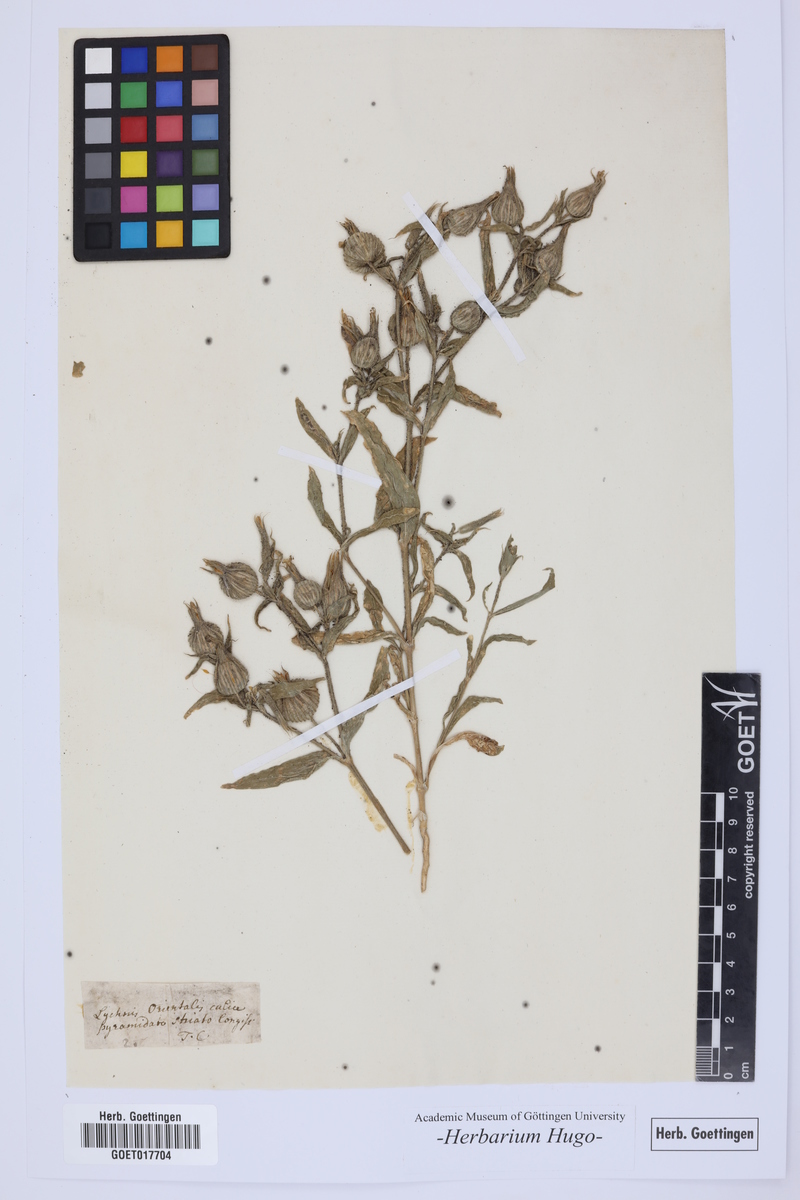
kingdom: Plantae
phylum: Tracheophyta
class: Magnoliopsida
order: Caryophyllales
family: Caryophyllaceae
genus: Silene
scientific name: Silene
